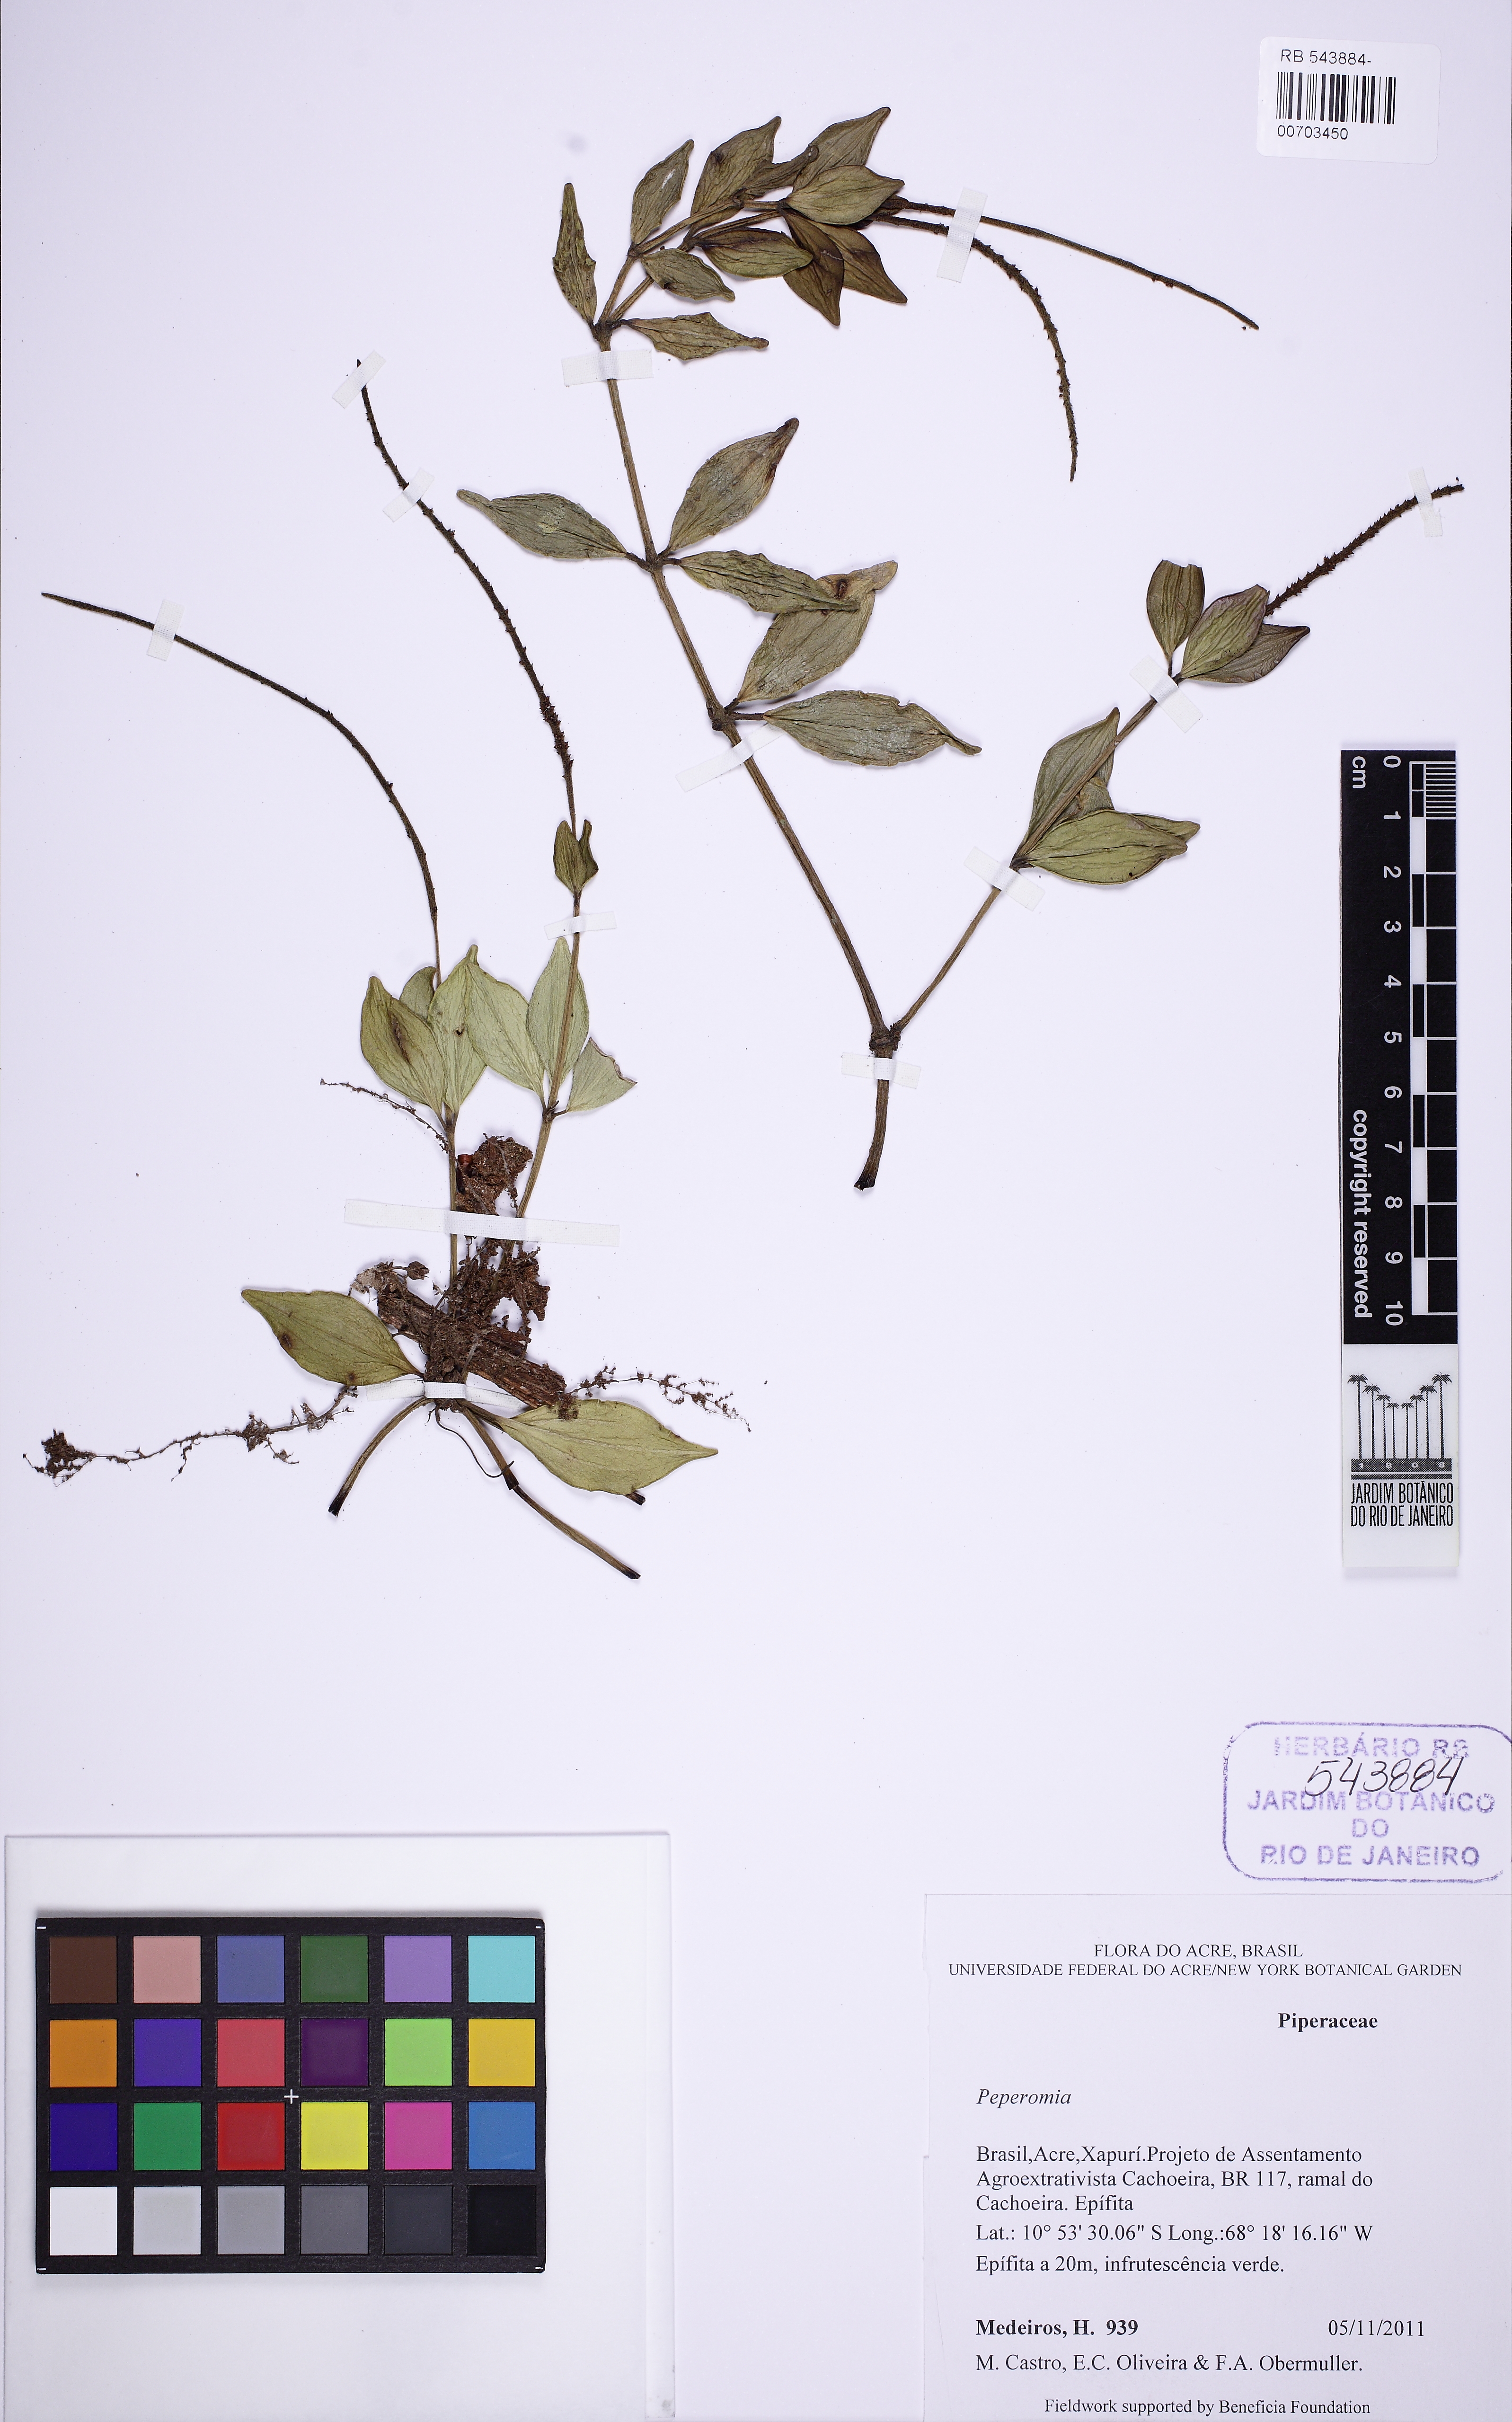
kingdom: Plantae
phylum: Tracheophyta
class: Magnoliopsida
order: Piperales
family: Piperaceae
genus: Peperomia
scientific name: Peperomia angustata
